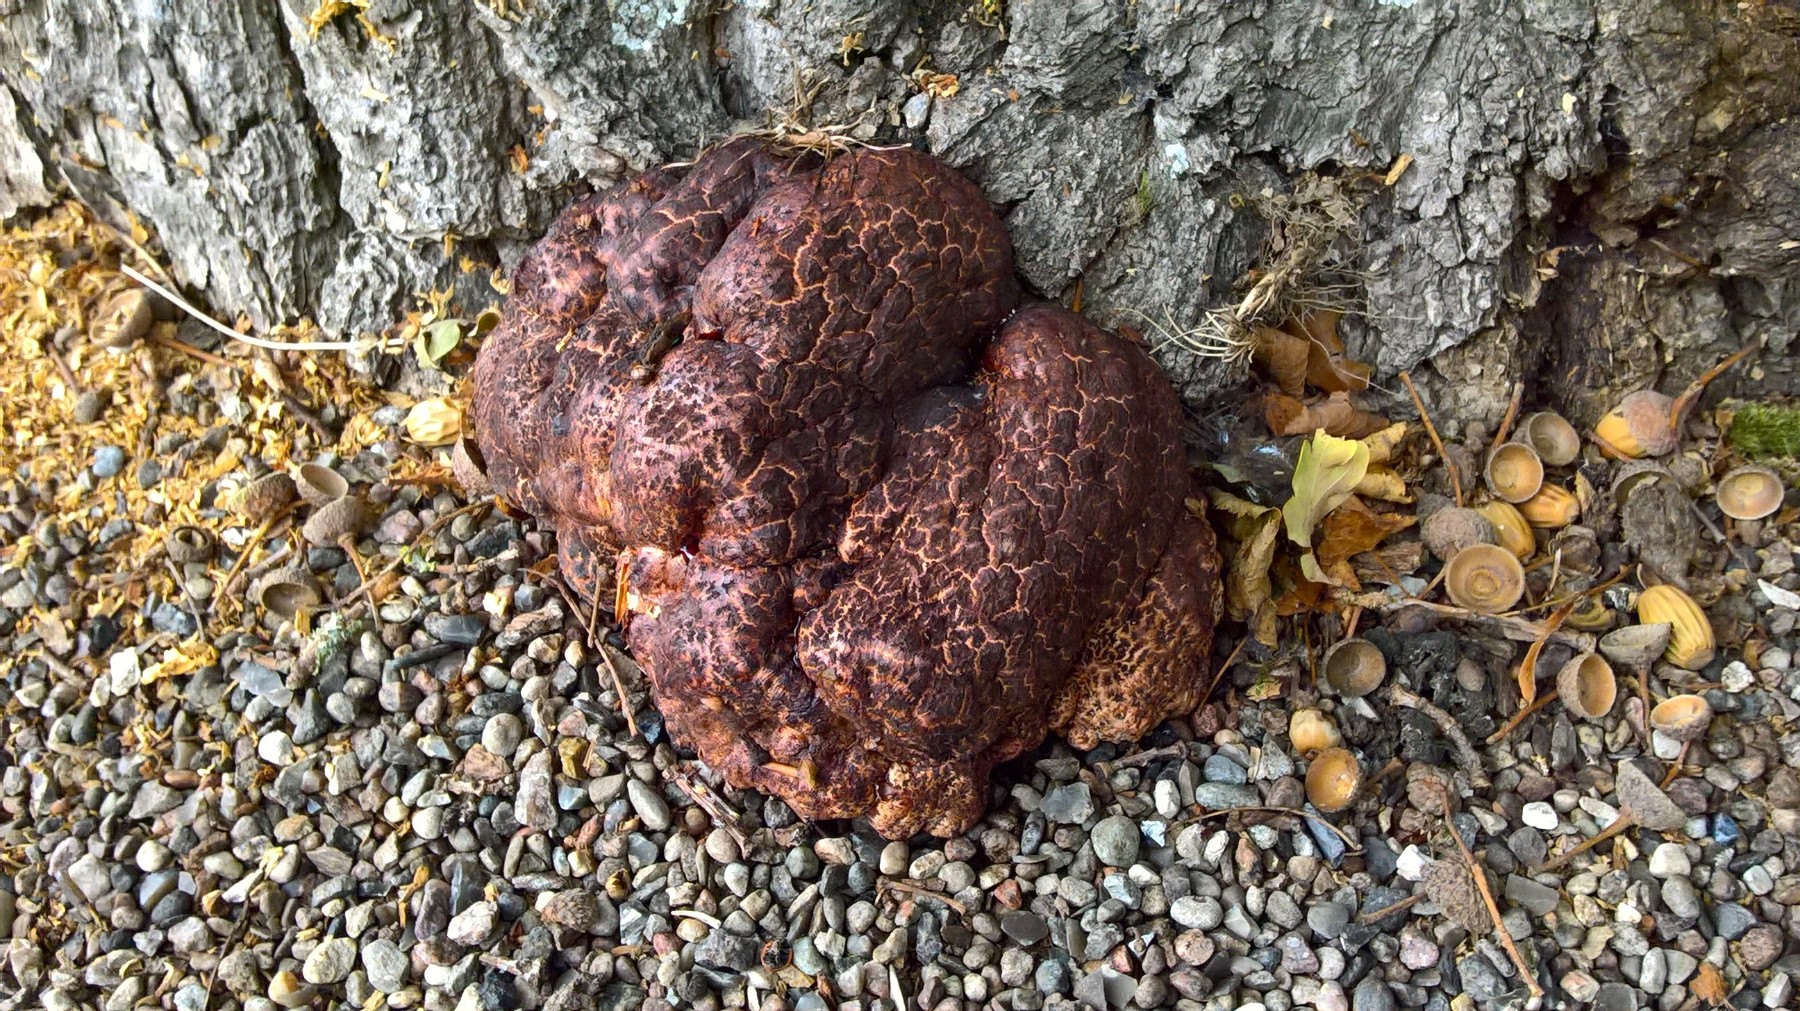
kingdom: Fungi
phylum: Basidiomycota
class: Agaricomycetes
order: Agaricales
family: Fistulinaceae
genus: Fistulina
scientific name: Fistulina hepatica
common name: oksetunge
